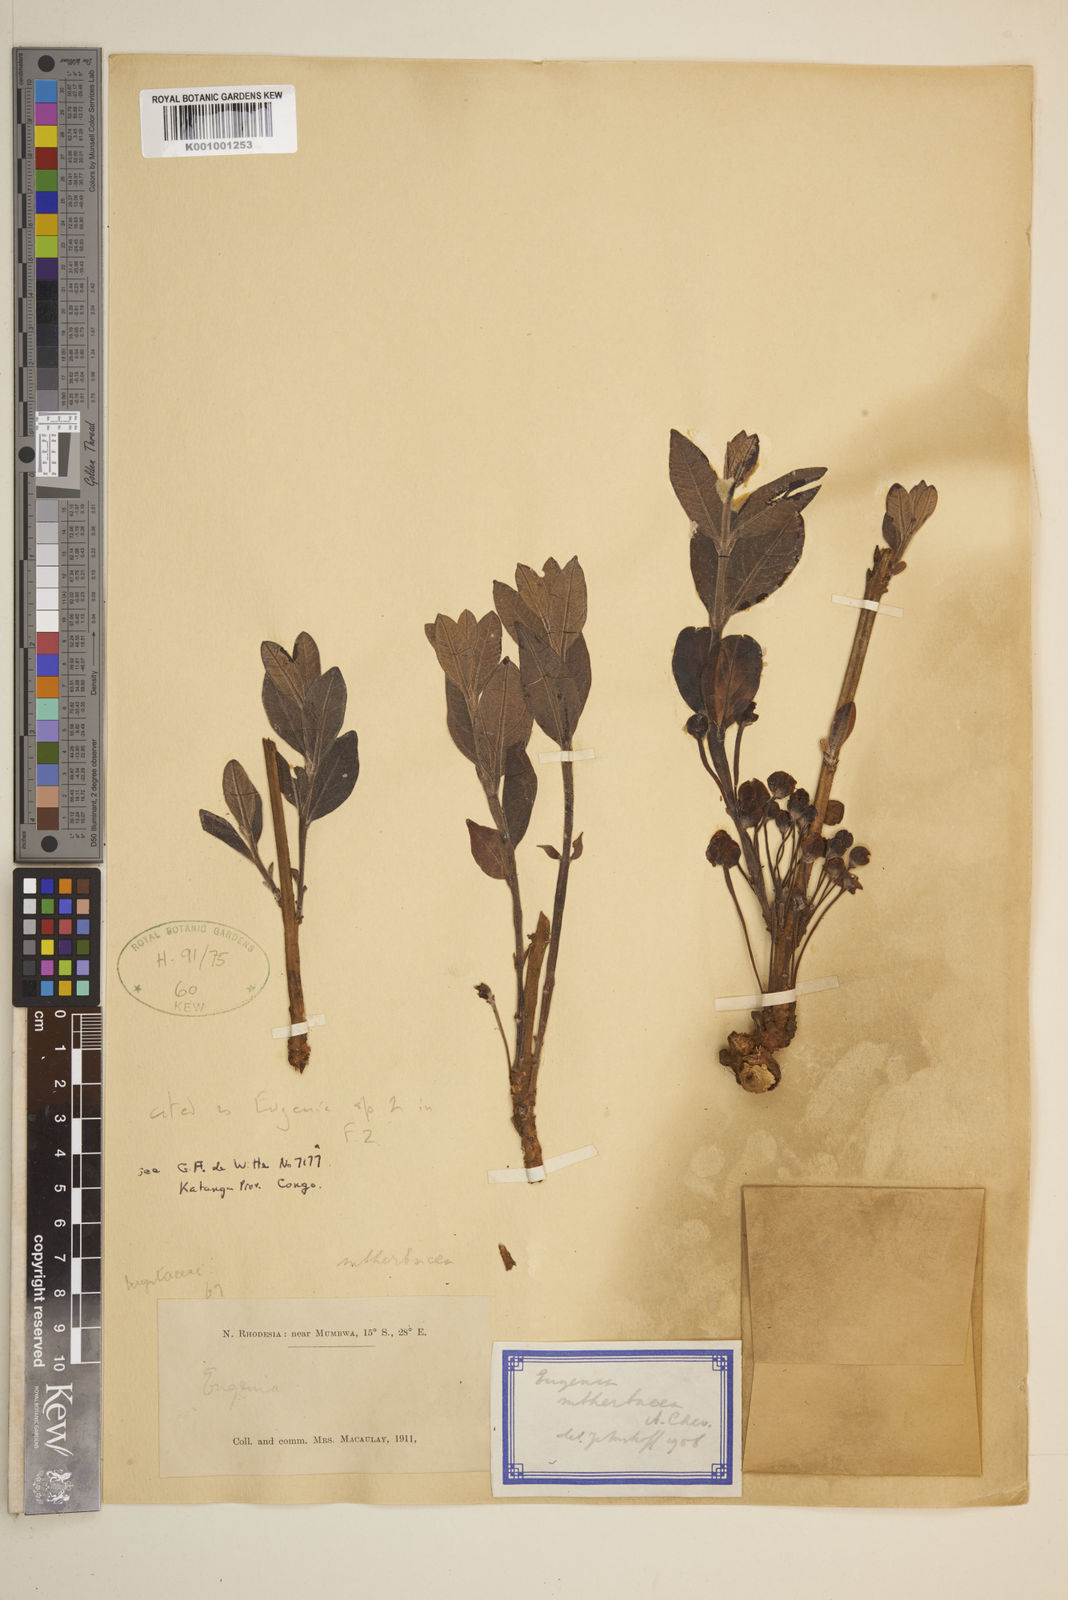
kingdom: Plantae
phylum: Tracheophyta
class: Magnoliopsida
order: Myrtales
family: Myrtaceae
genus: Eugenia
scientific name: Eugenia subherbacea
